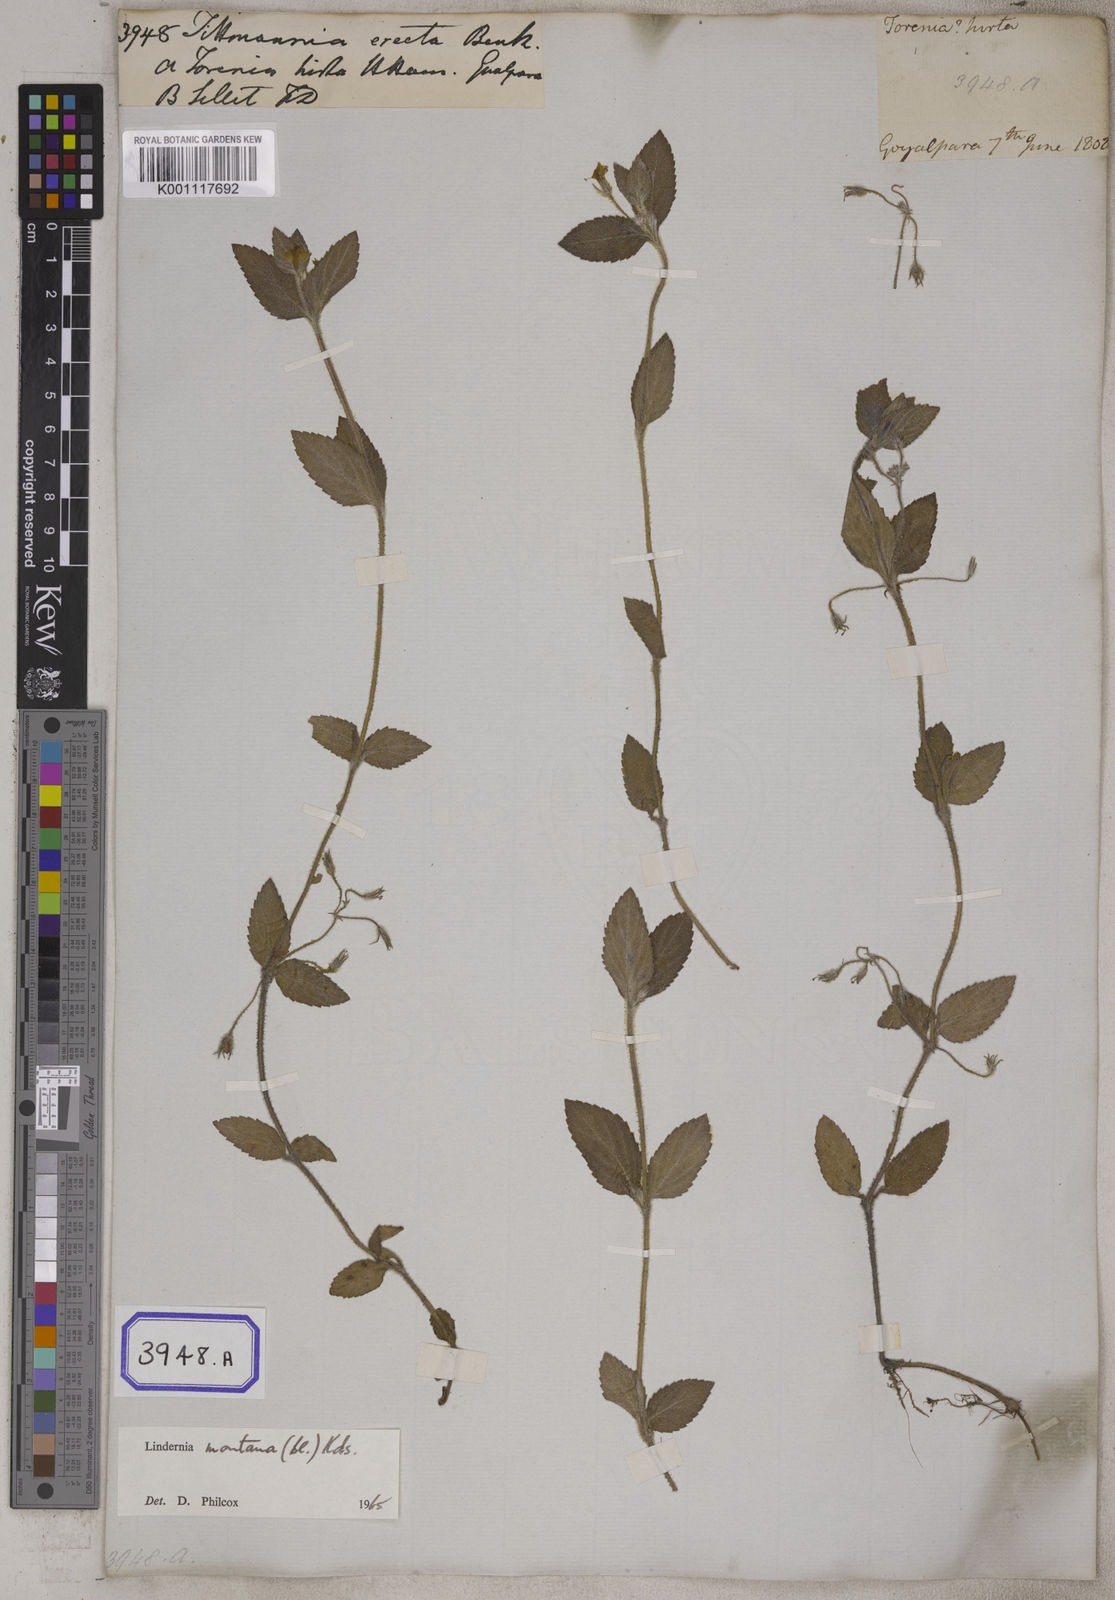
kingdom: Plantae
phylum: Tracheophyta
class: Magnoliopsida
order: Lamiales
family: Linderniaceae
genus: Lindernia
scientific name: Lindernia procumbens
